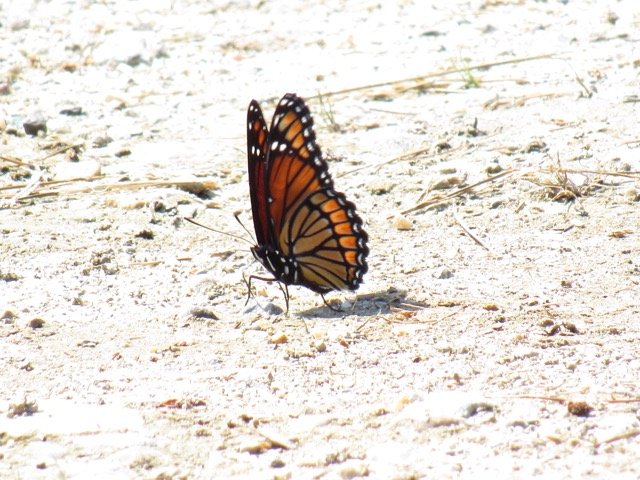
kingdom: Animalia
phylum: Arthropoda
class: Insecta
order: Lepidoptera
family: Nymphalidae
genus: Limenitis
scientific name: Limenitis archippus
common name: Viceroy
